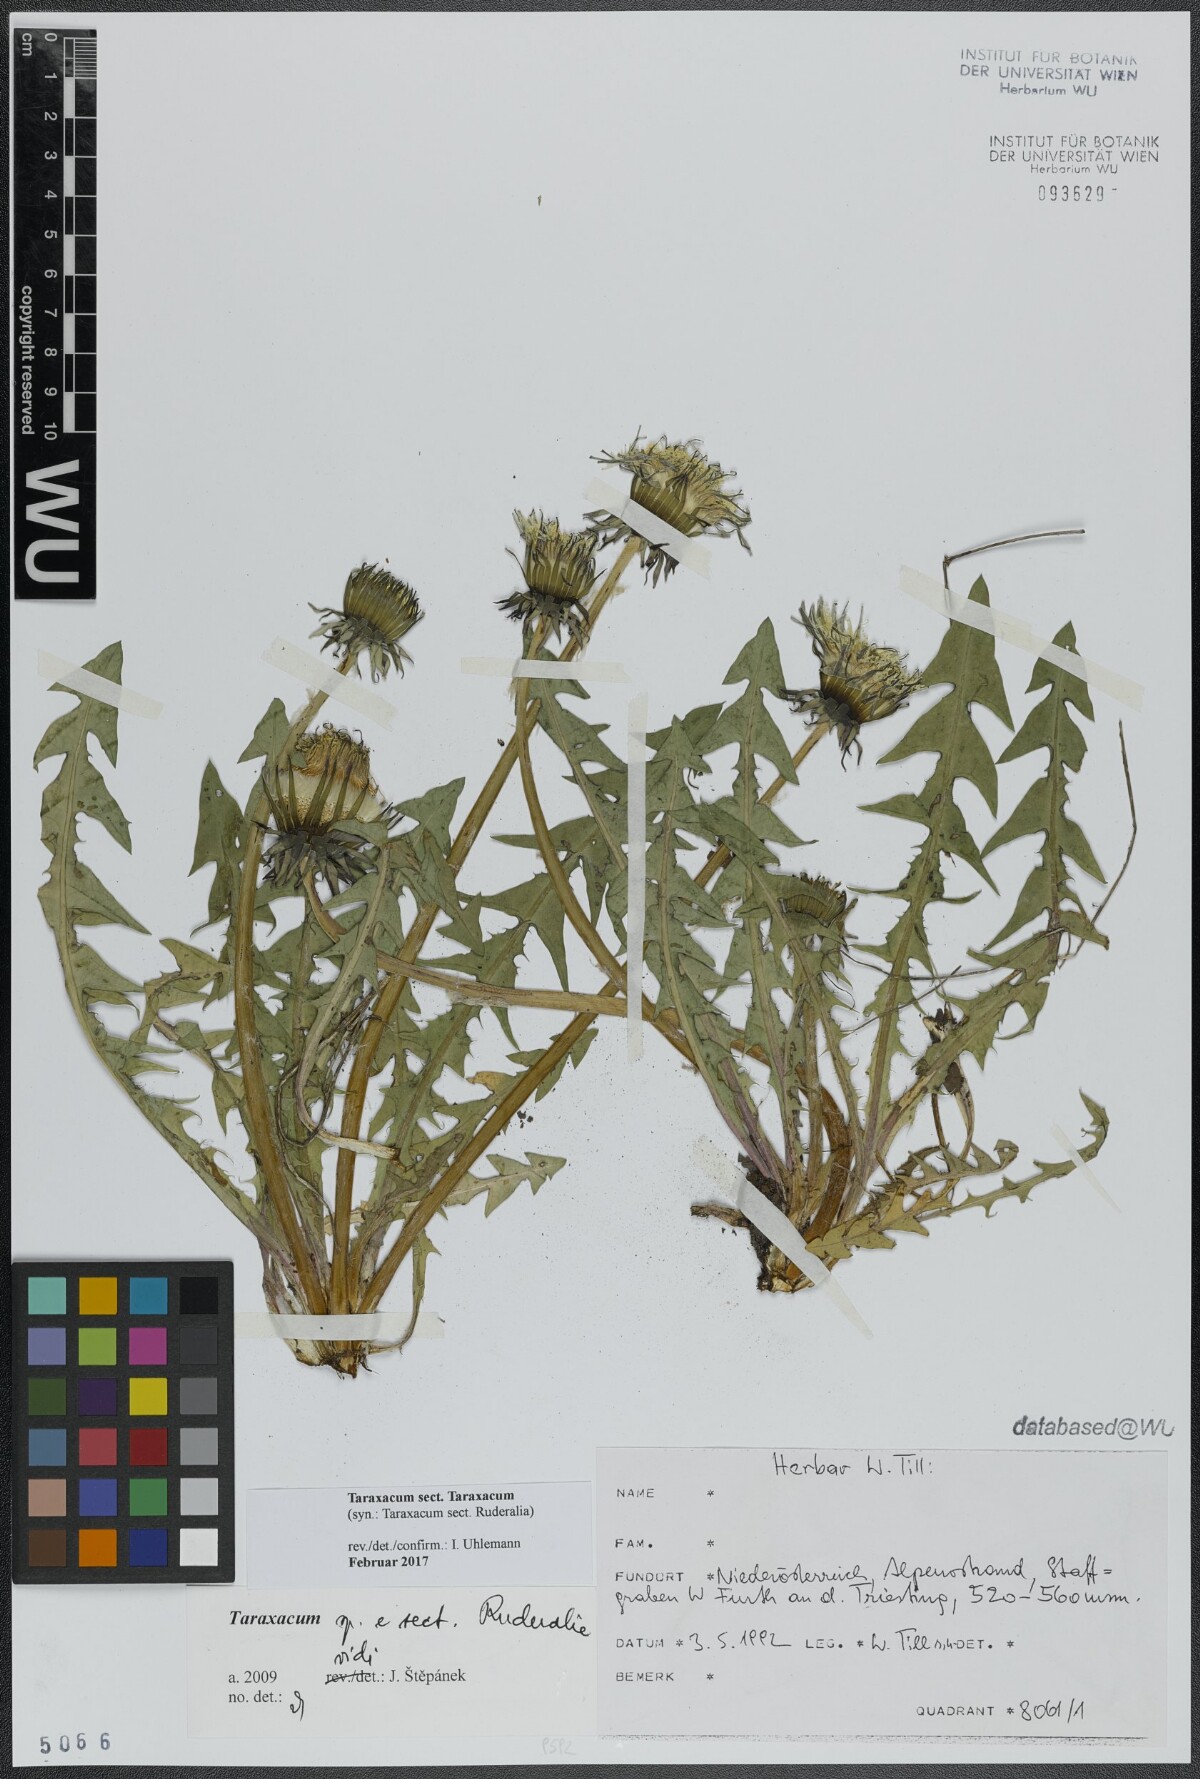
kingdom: Plantae
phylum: Tracheophyta
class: Magnoliopsida
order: Asterales
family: Asteraceae
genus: Taraxacum
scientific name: Taraxacum
